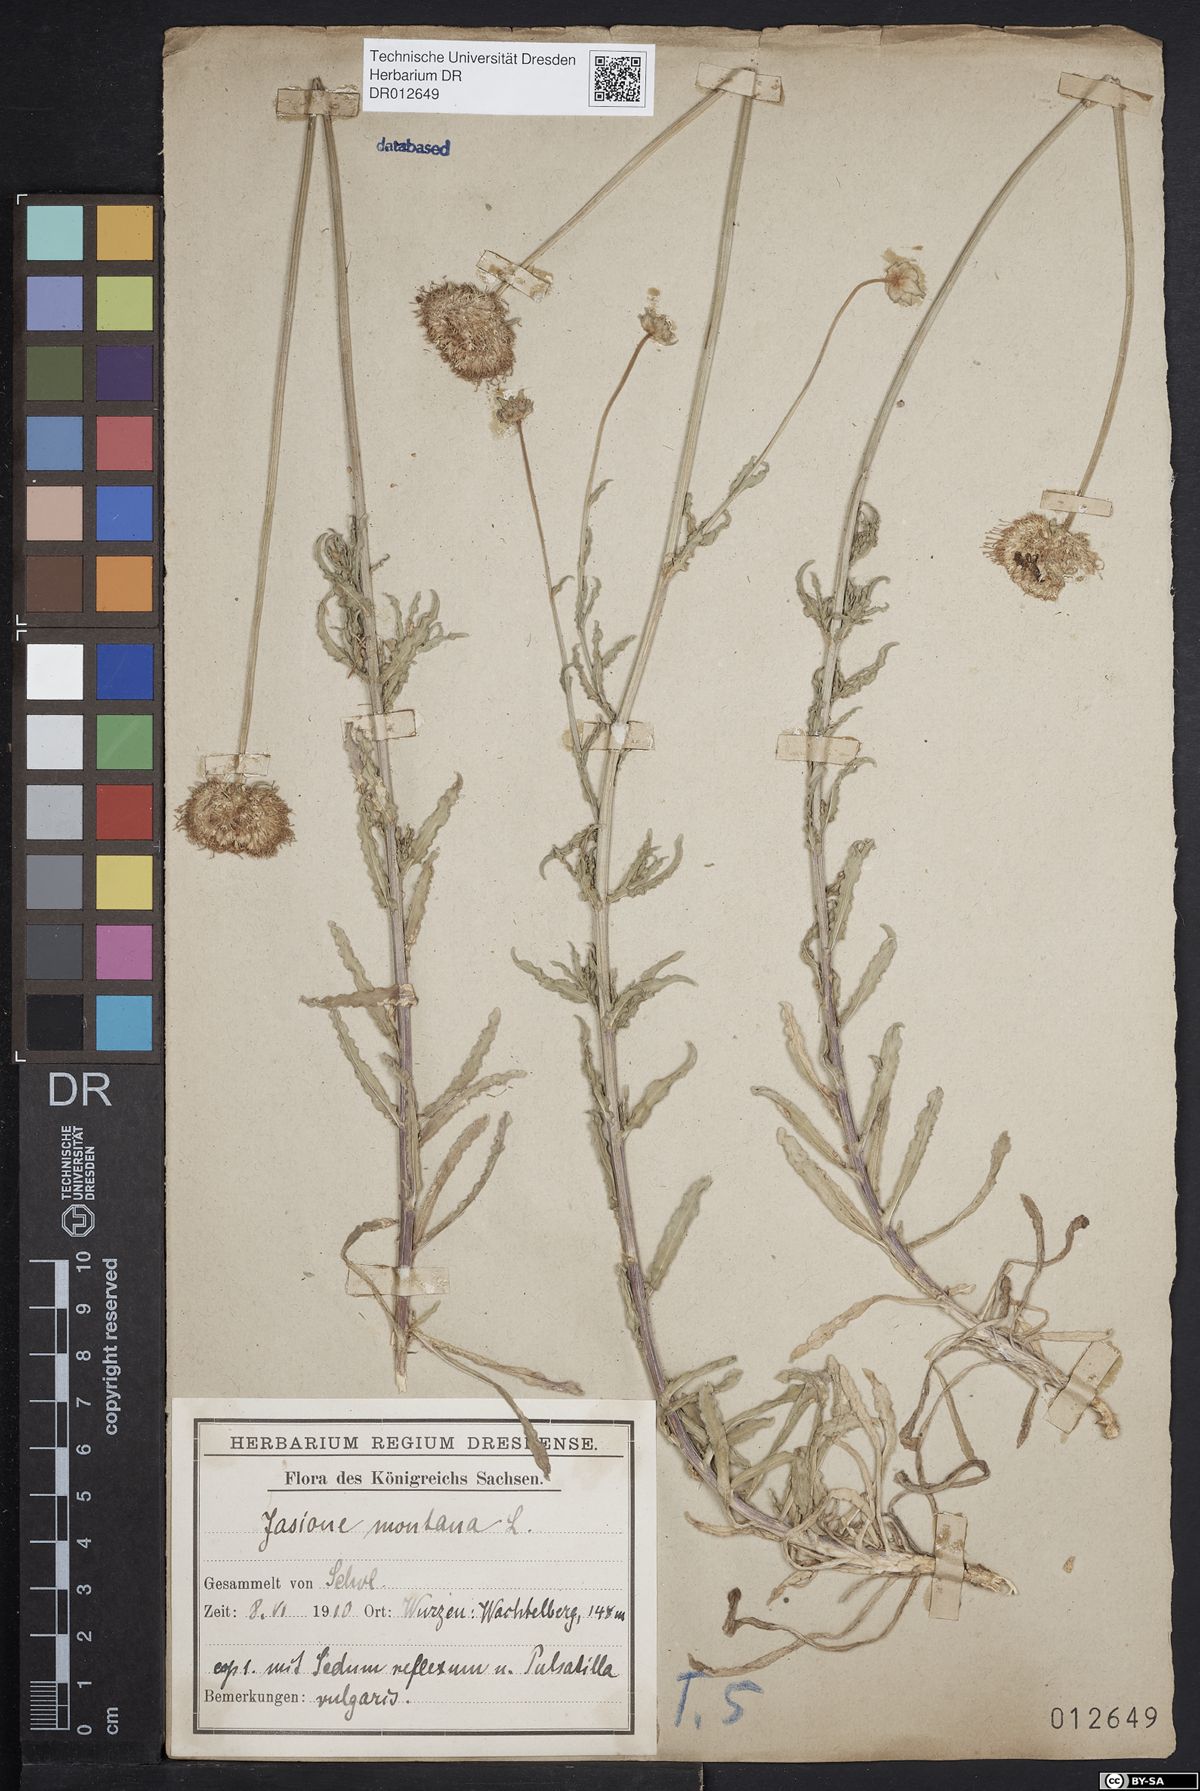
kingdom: Plantae
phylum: Tracheophyta
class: Magnoliopsida
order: Asterales
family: Campanulaceae
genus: Jasione
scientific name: Jasione montana
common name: Sheep's-bit
